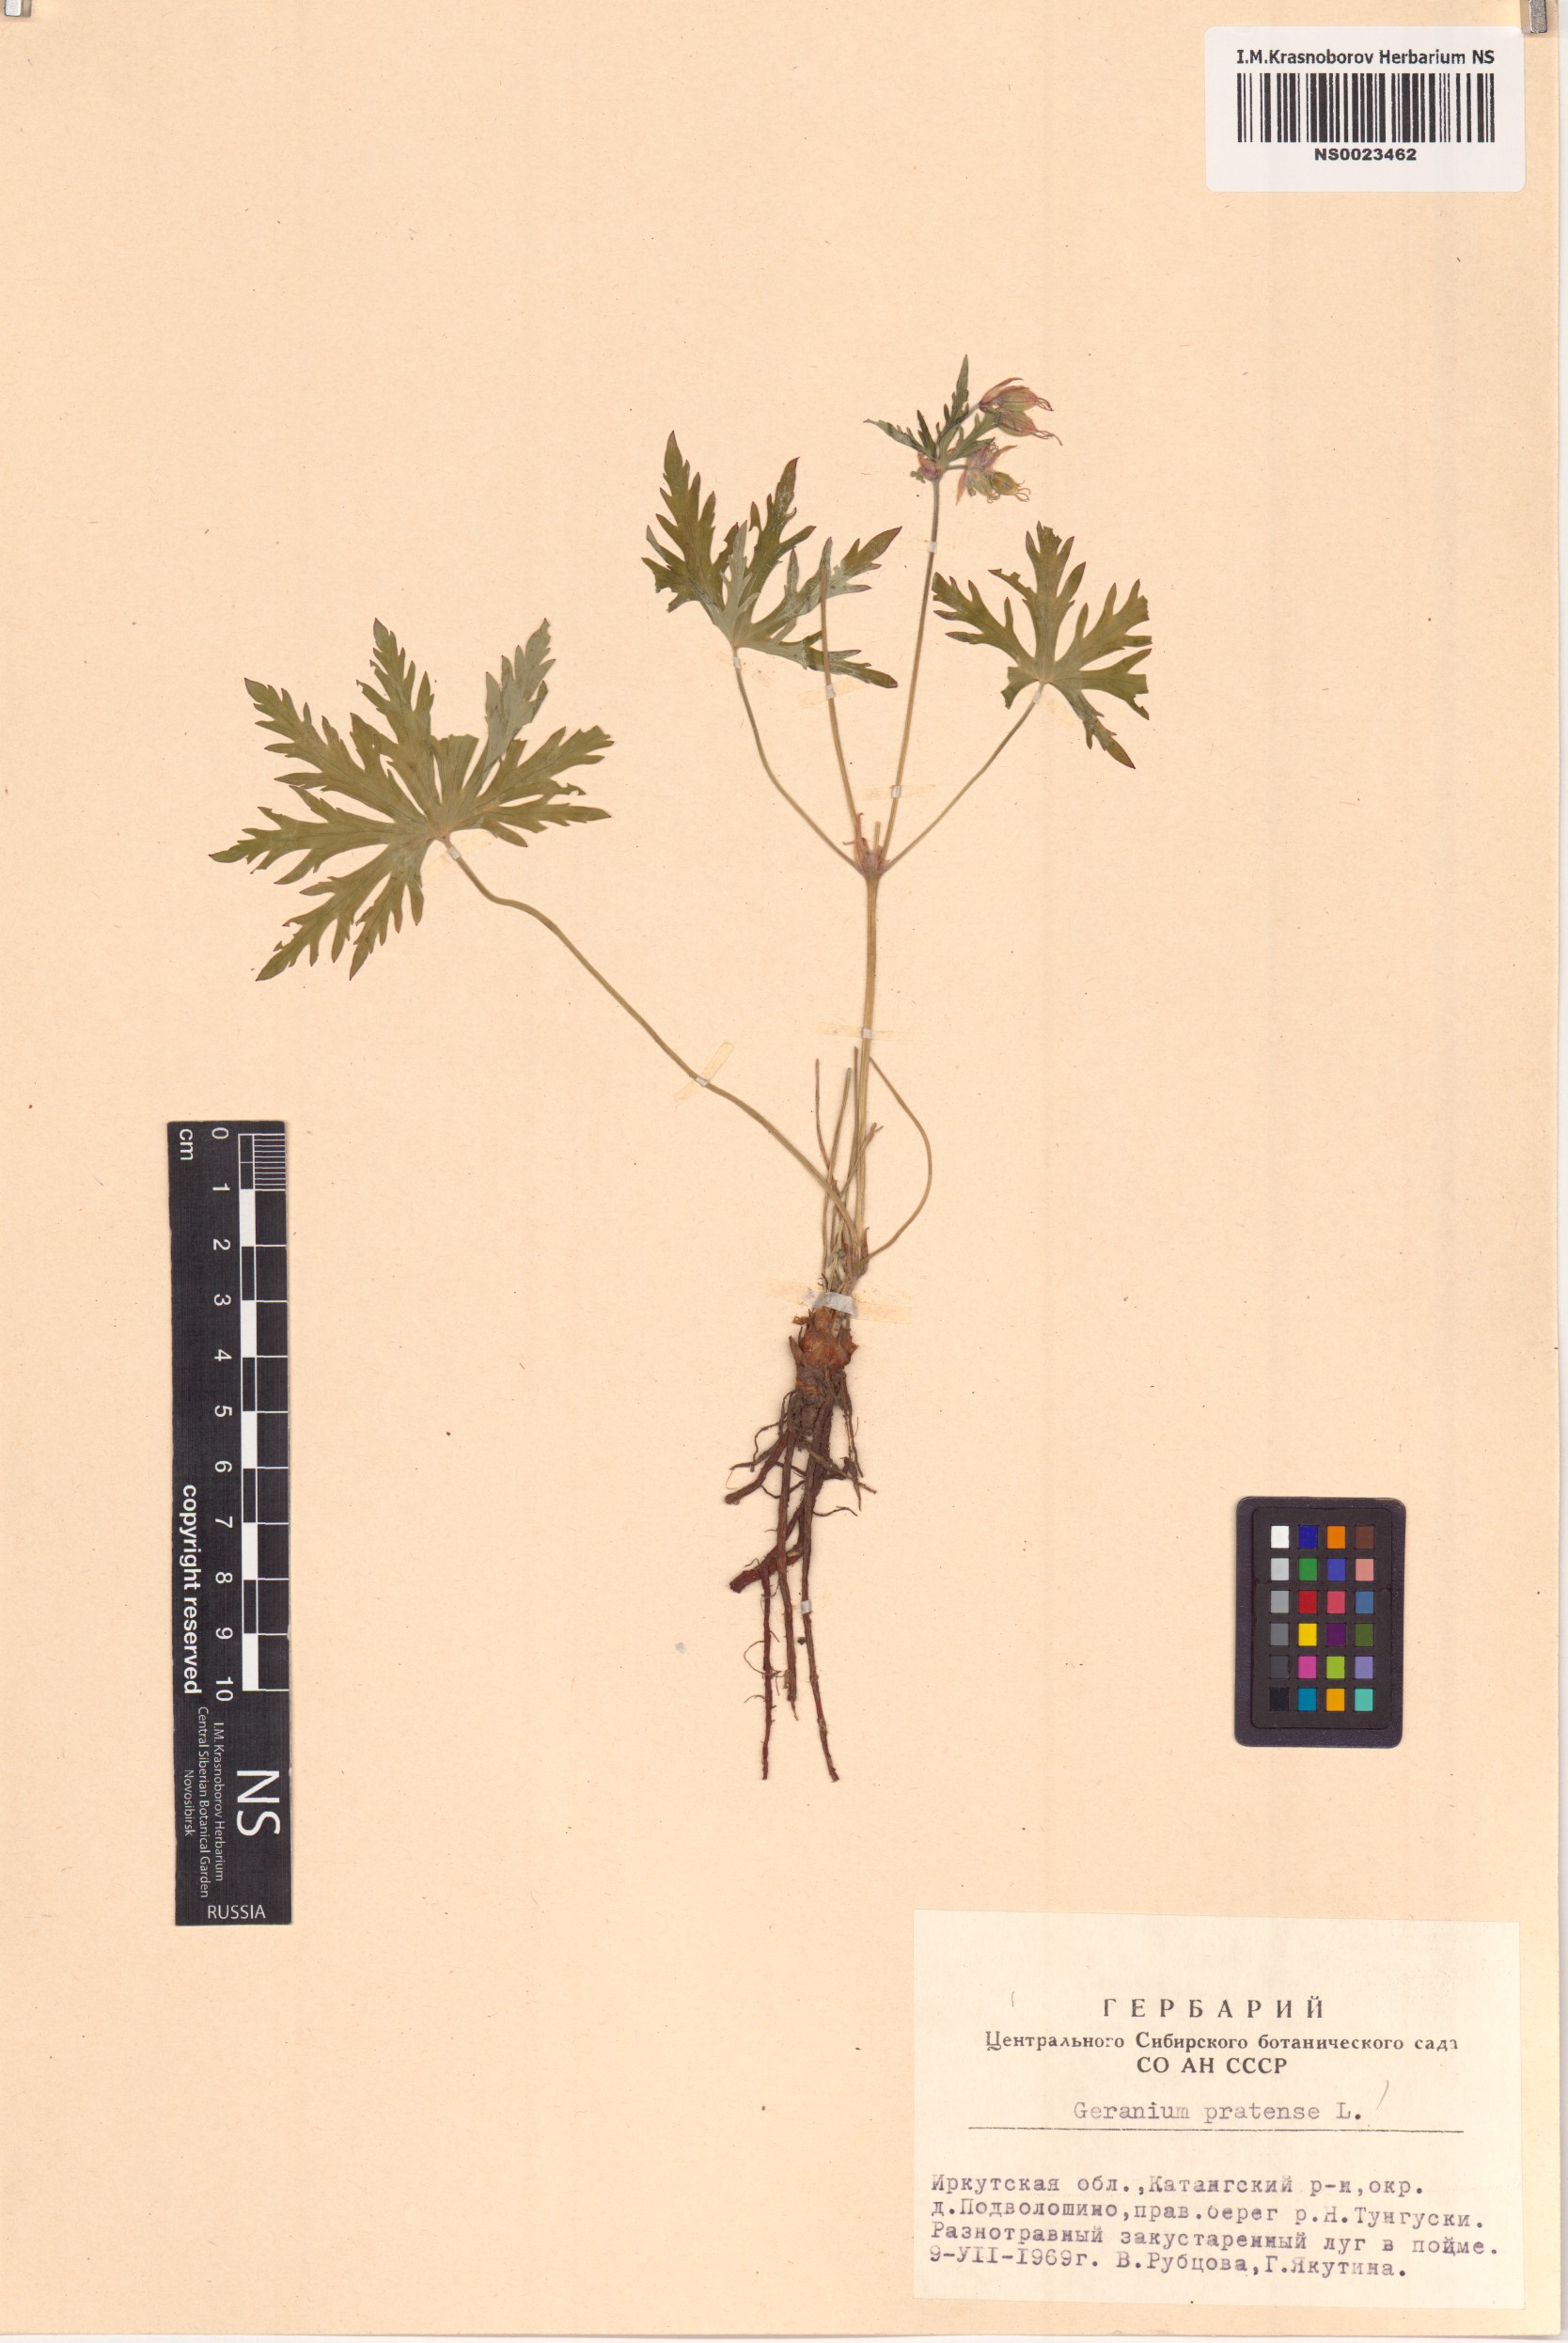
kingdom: Plantae
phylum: Tracheophyta
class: Magnoliopsida
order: Geraniales
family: Geraniaceae
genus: Geranium
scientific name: Geranium pratense
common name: Meadow crane's-bill
